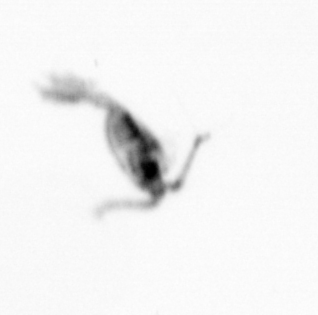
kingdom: Animalia
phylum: Arthropoda
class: Copepoda
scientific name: Copepoda
